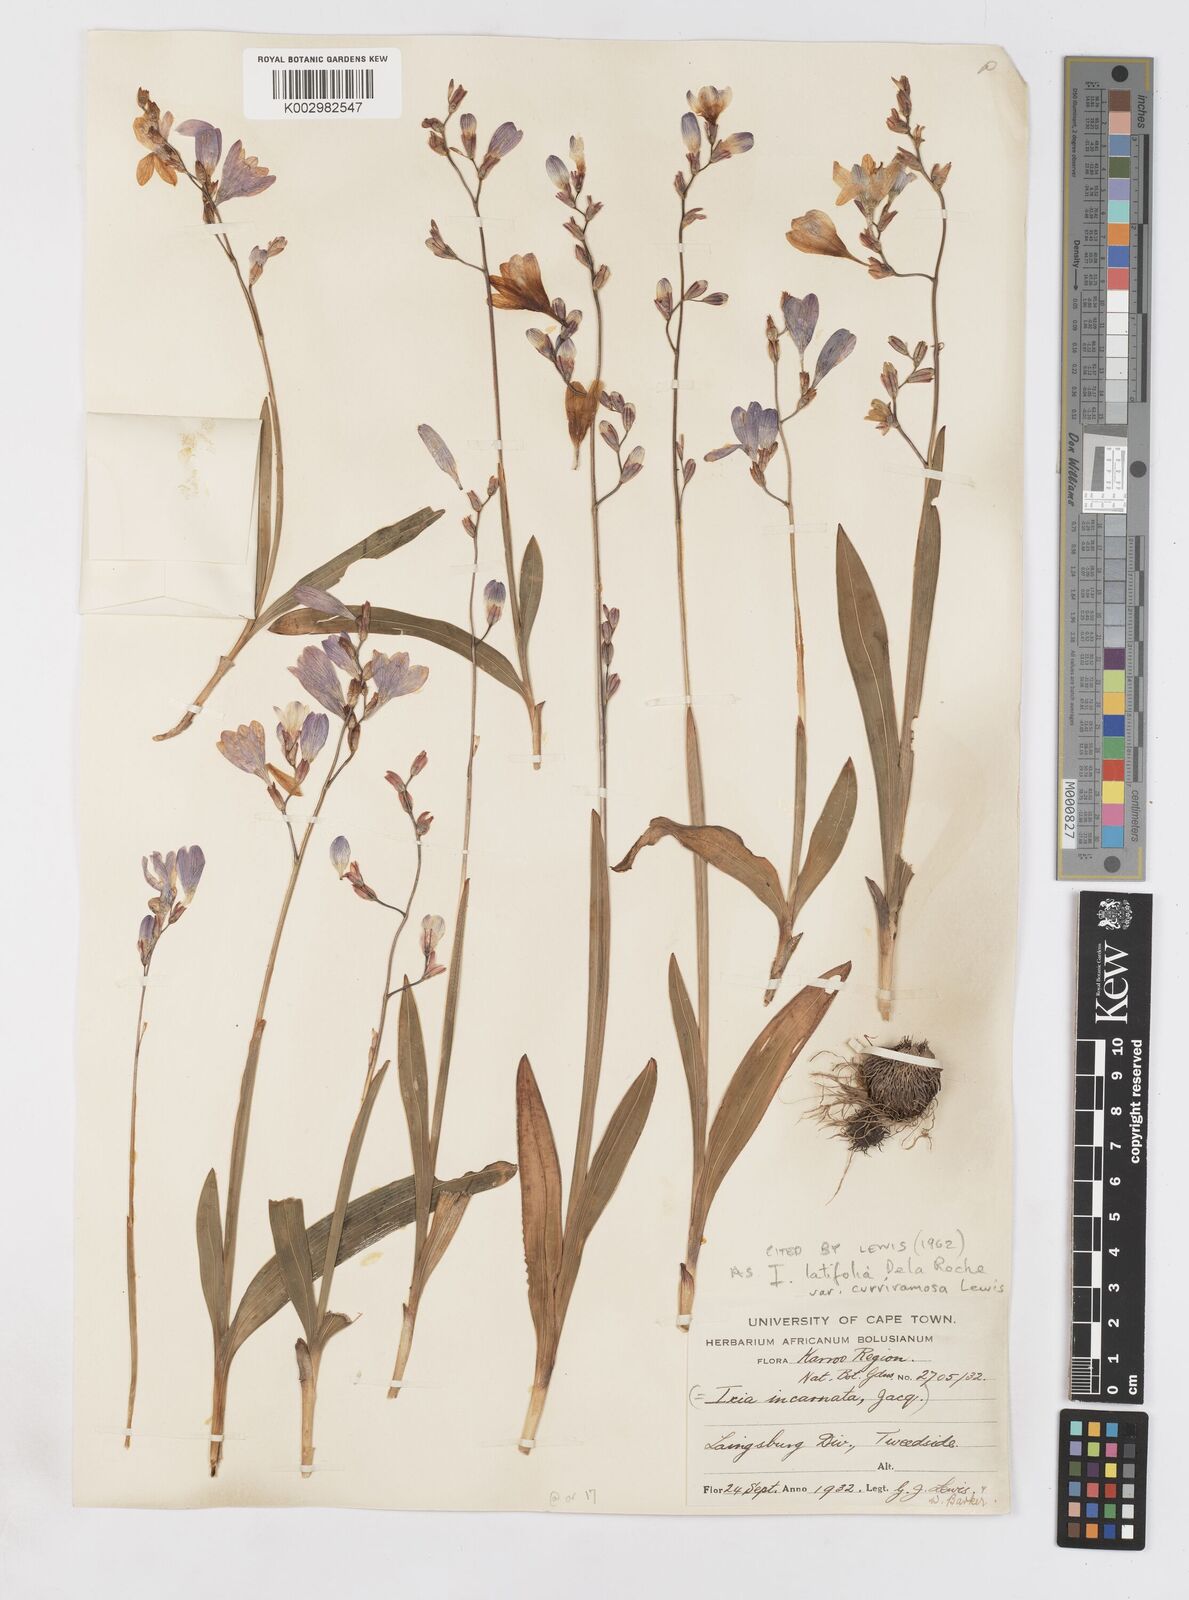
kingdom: Plantae
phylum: Tracheophyta
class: Liliopsida
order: Asparagales
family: Iridaceae
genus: Ixia
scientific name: Ixia latifolia
